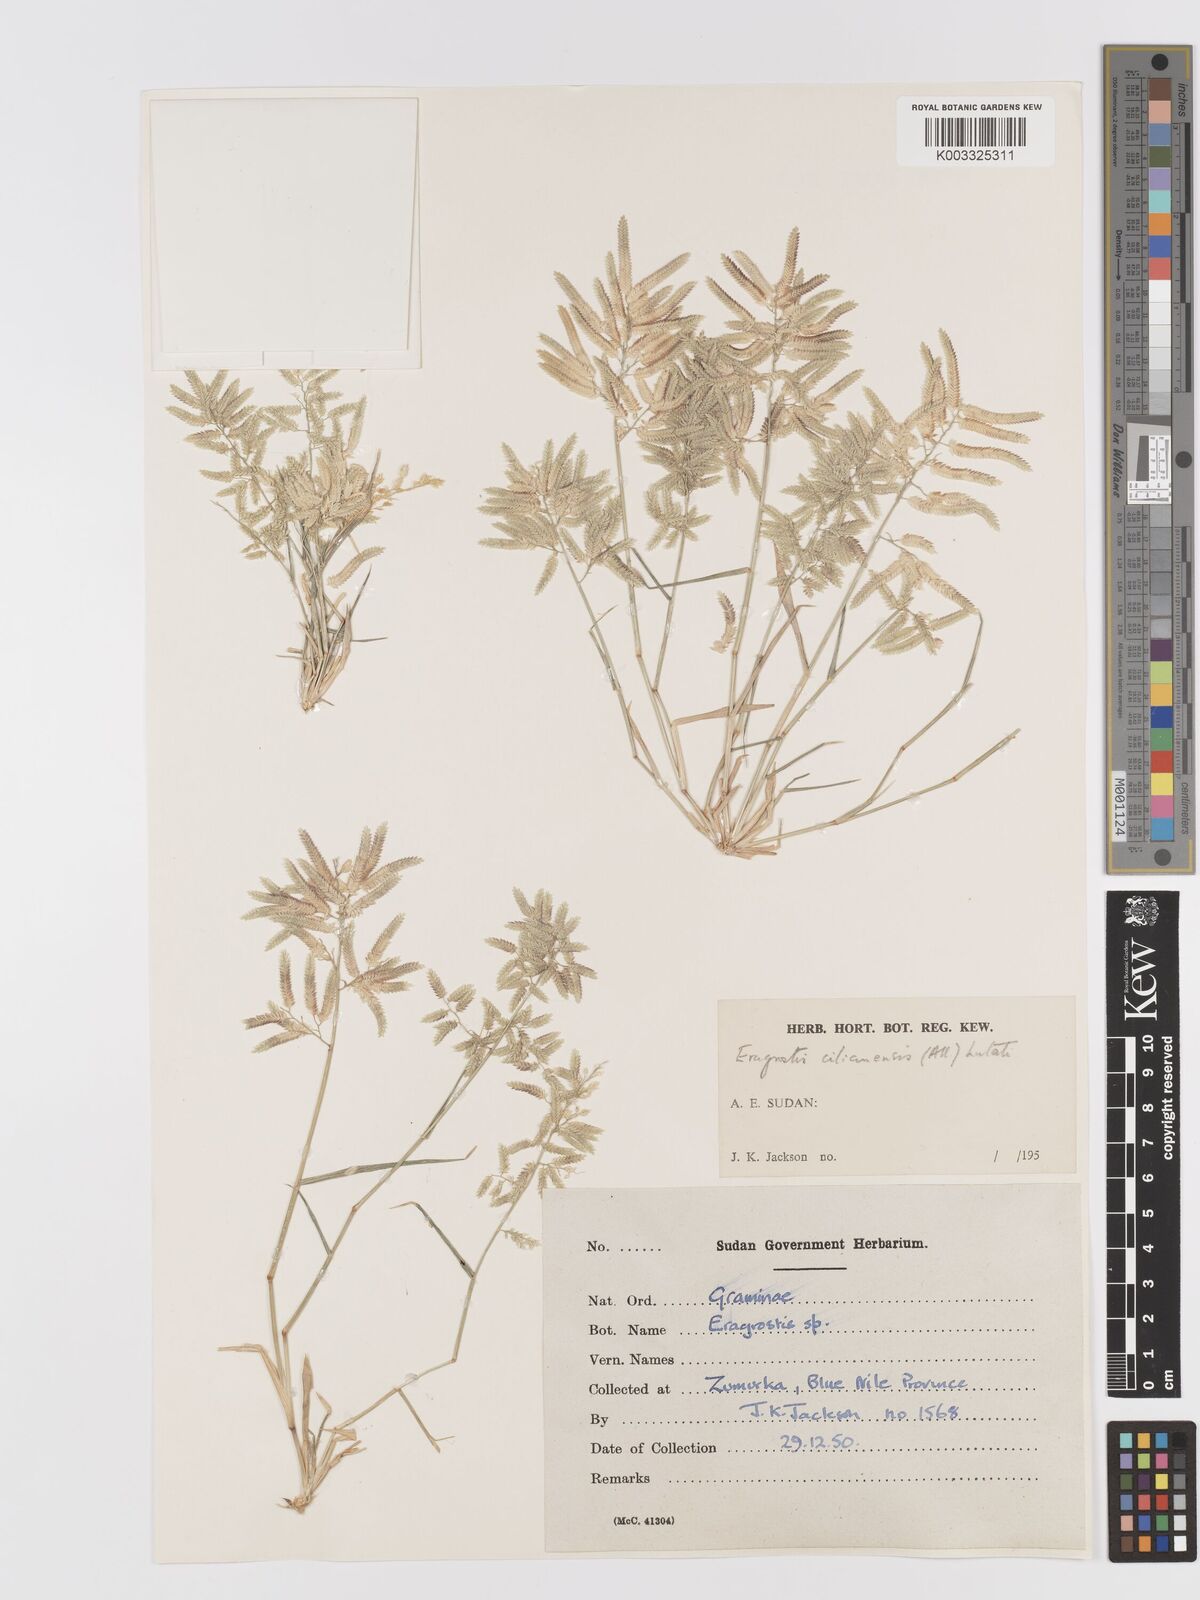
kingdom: Plantae
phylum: Tracheophyta
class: Liliopsida
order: Poales
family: Poaceae
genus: Eragrostis
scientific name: Eragrostis cilianensis
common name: Stinkgrass
